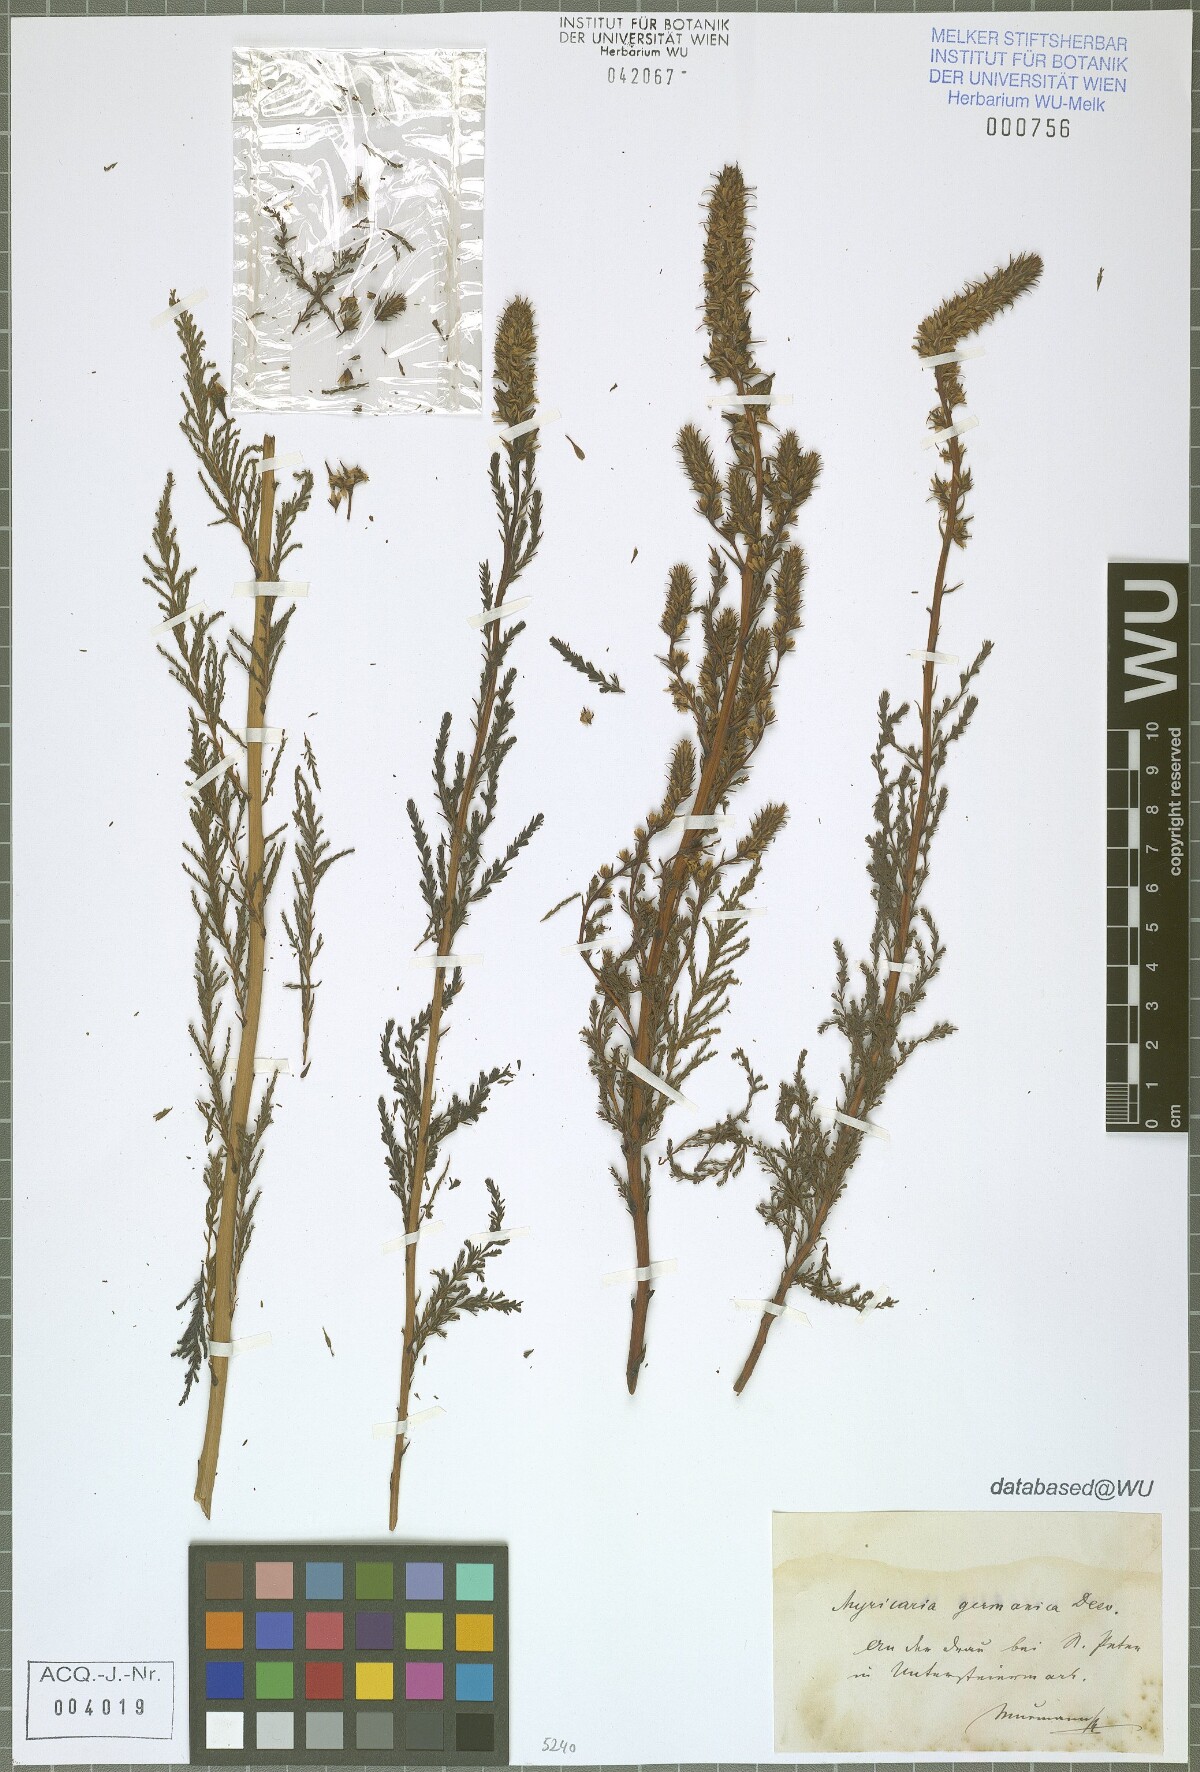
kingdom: Plantae
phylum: Tracheophyta
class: Magnoliopsida
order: Caryophyllales
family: Tamaricaceae
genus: Myricaria
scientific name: Myricaria germanica
